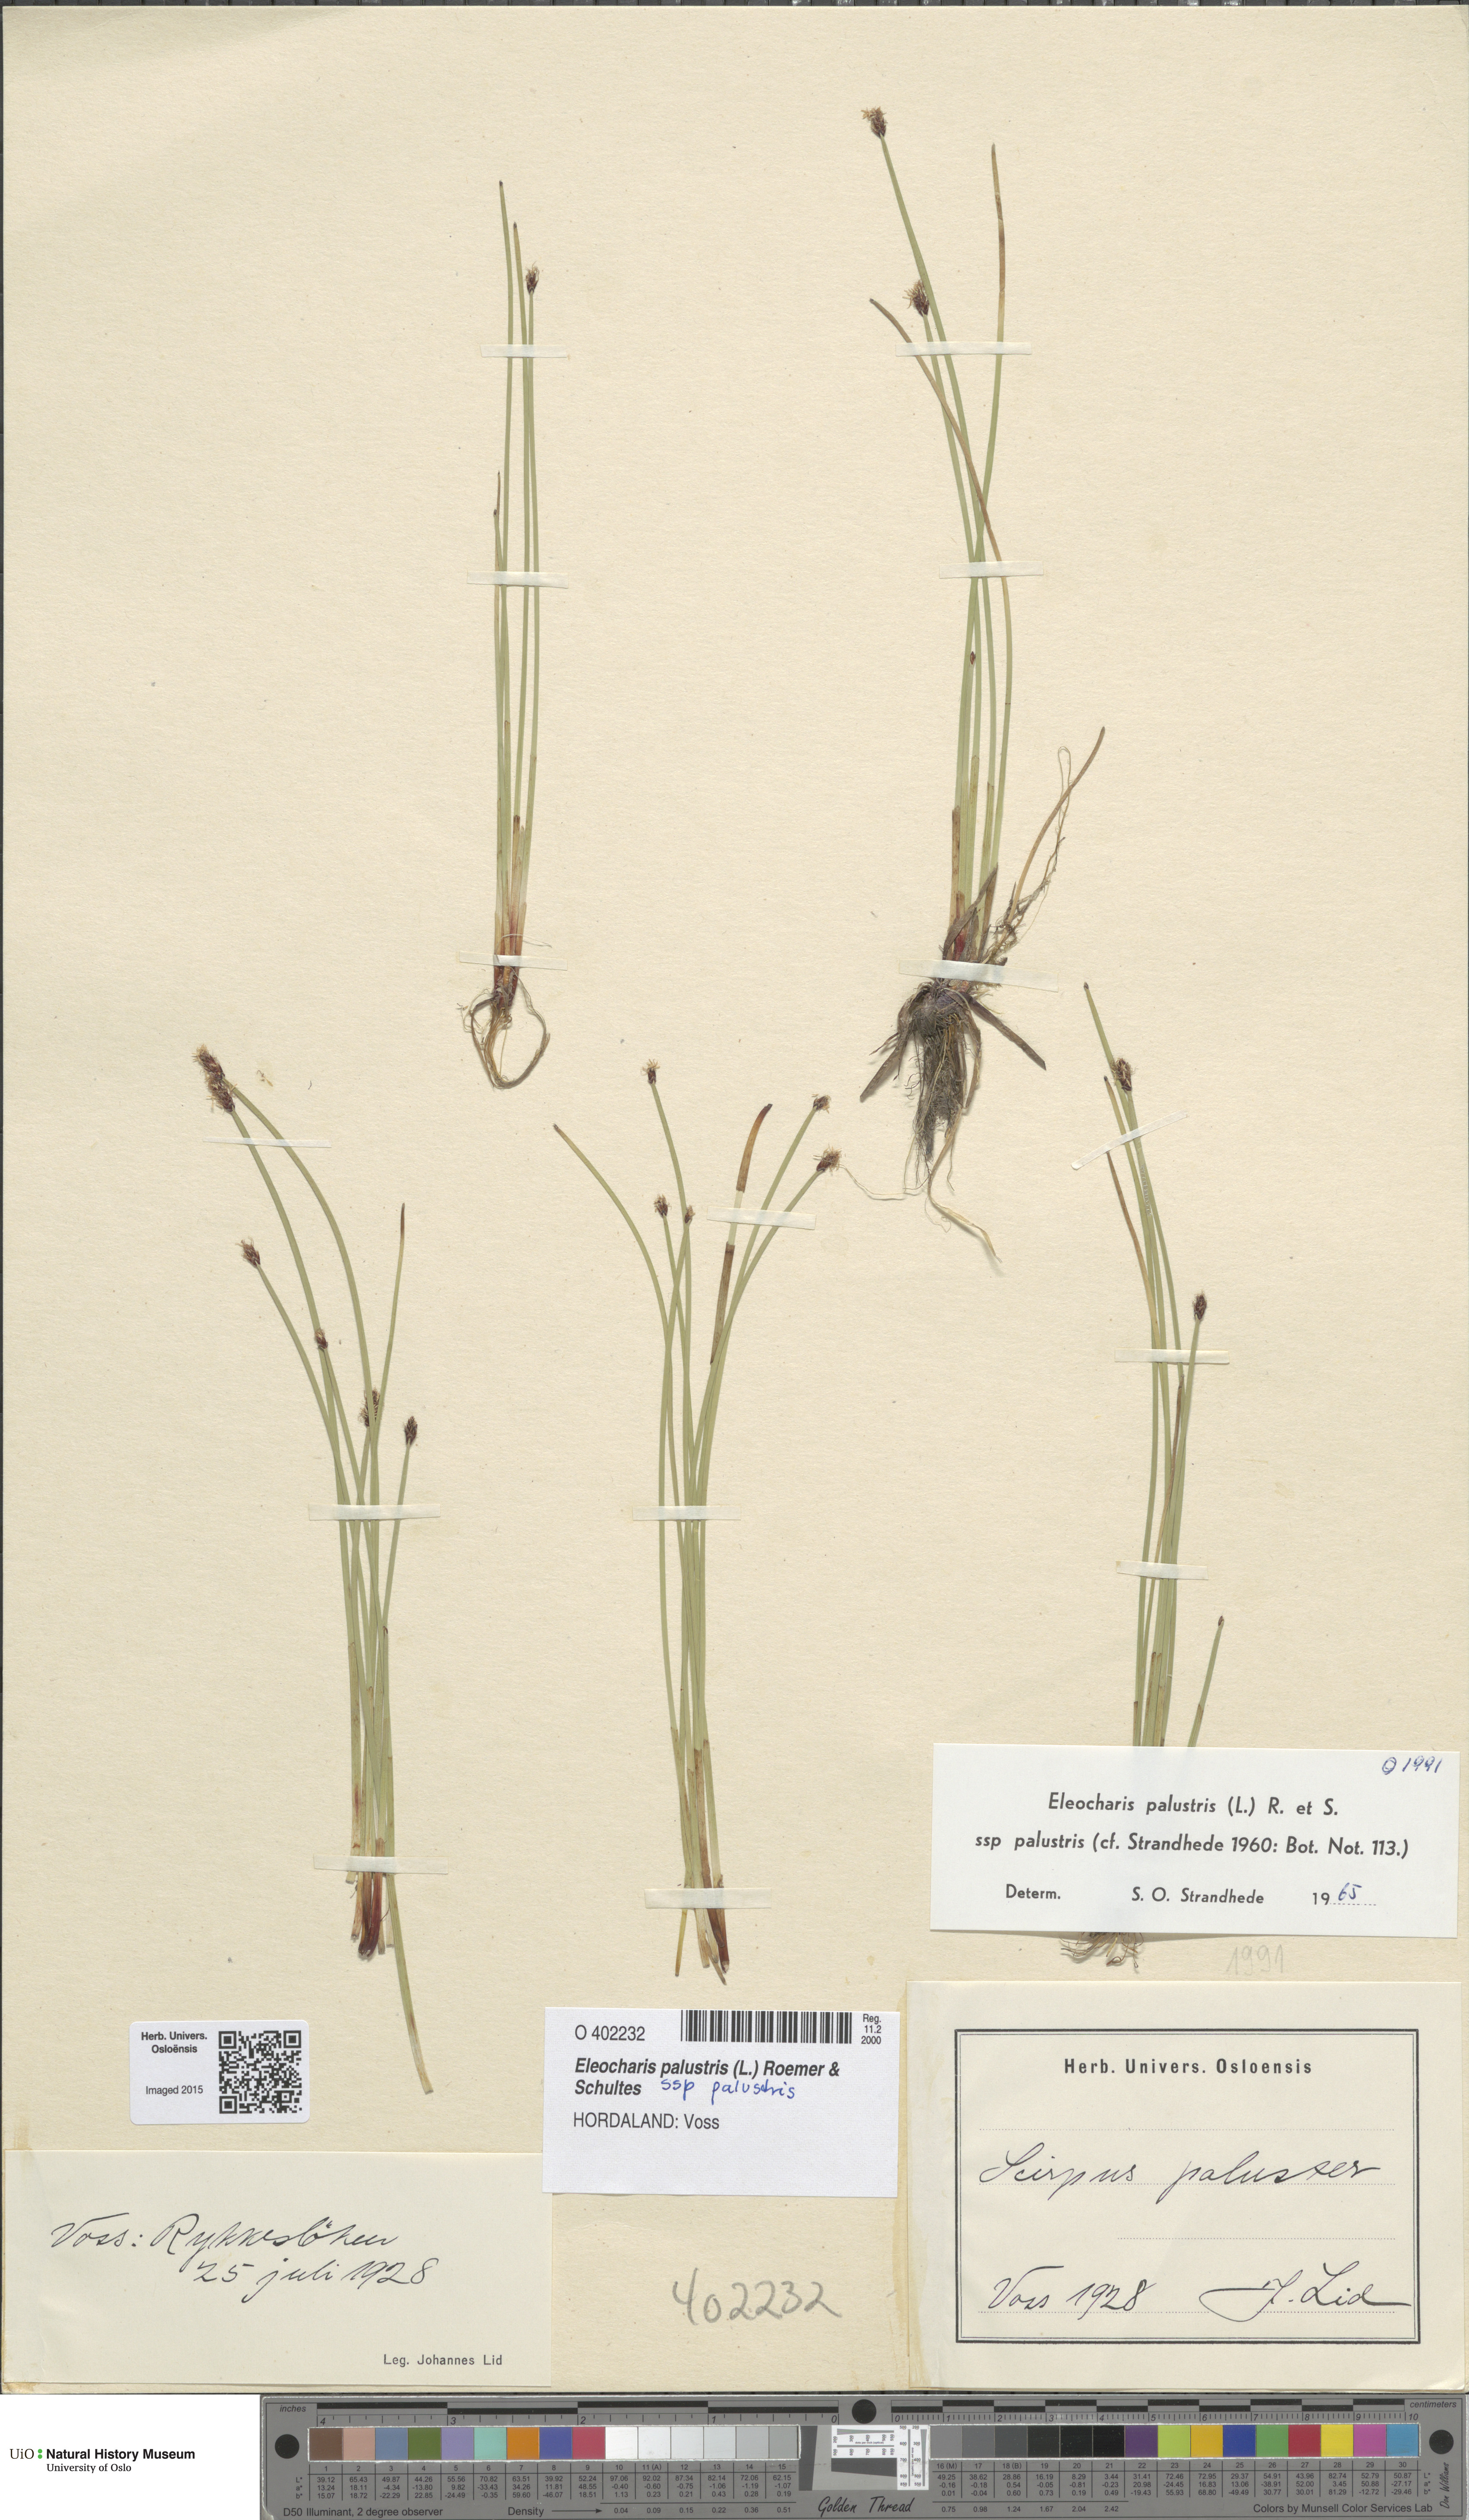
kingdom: Plantae
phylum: Tracheophyta
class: Liliopsida
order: Poales
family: Cyperaceae
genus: Eleocharis
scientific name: Eleocharis palustris
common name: Common spike-rush
